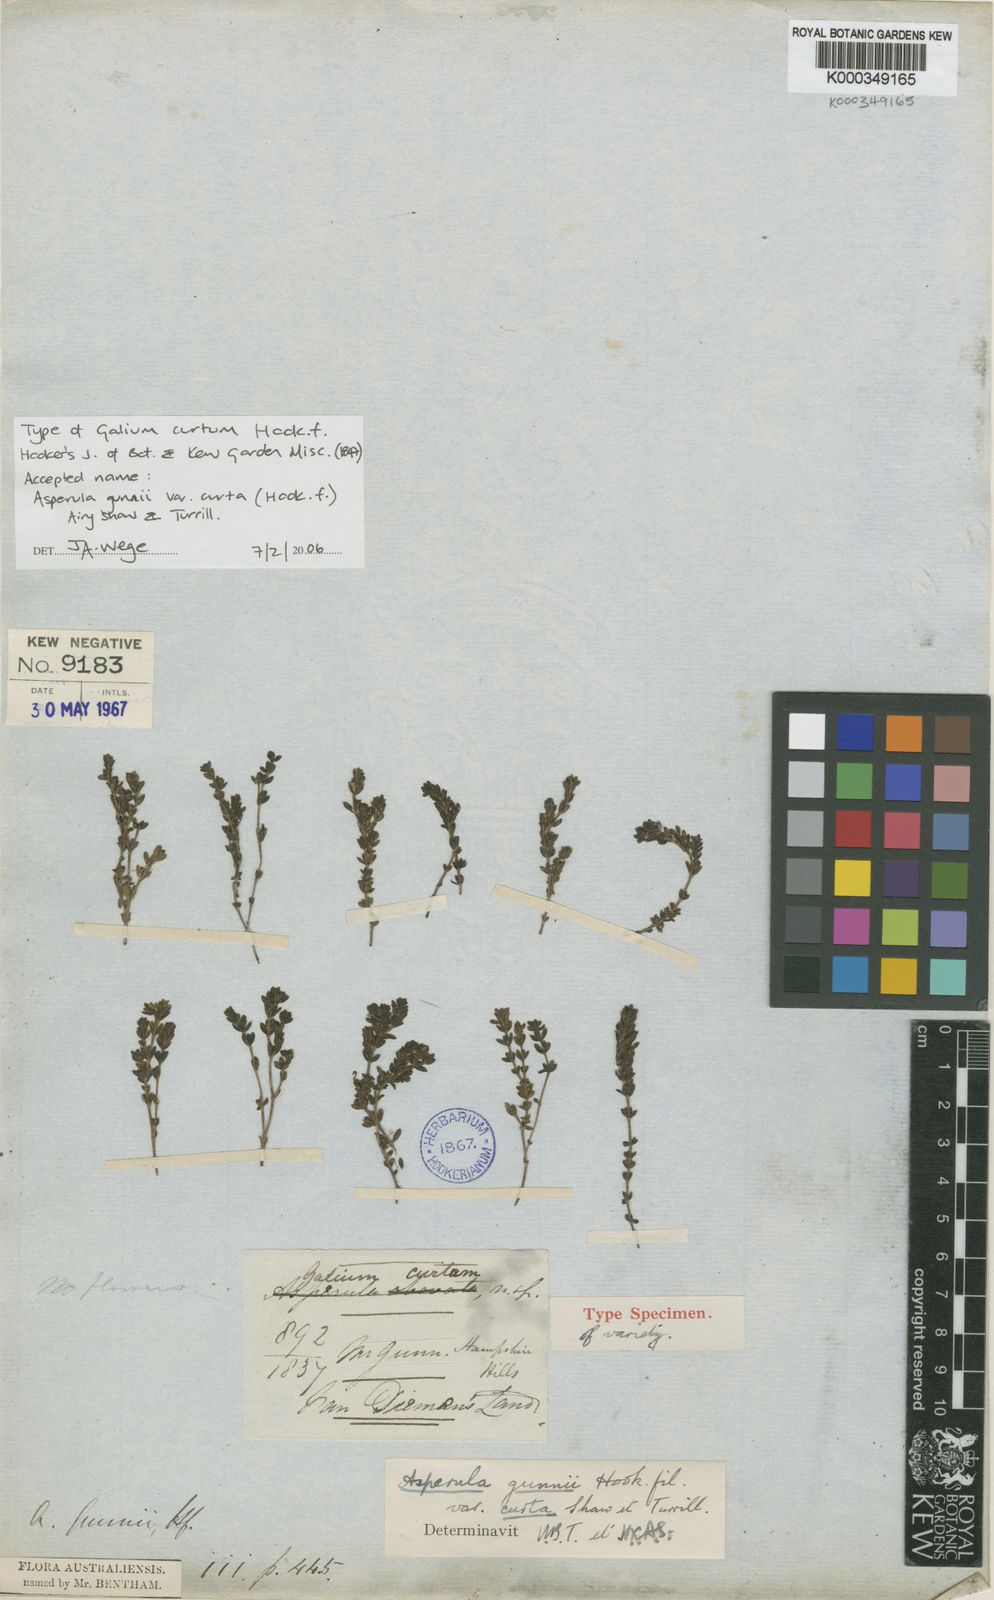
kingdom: Plantae
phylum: Tracheophyta
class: Magnoliopsida
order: Gentianales
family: Rubiaceae
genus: Asperula
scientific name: Asperula gunnii
